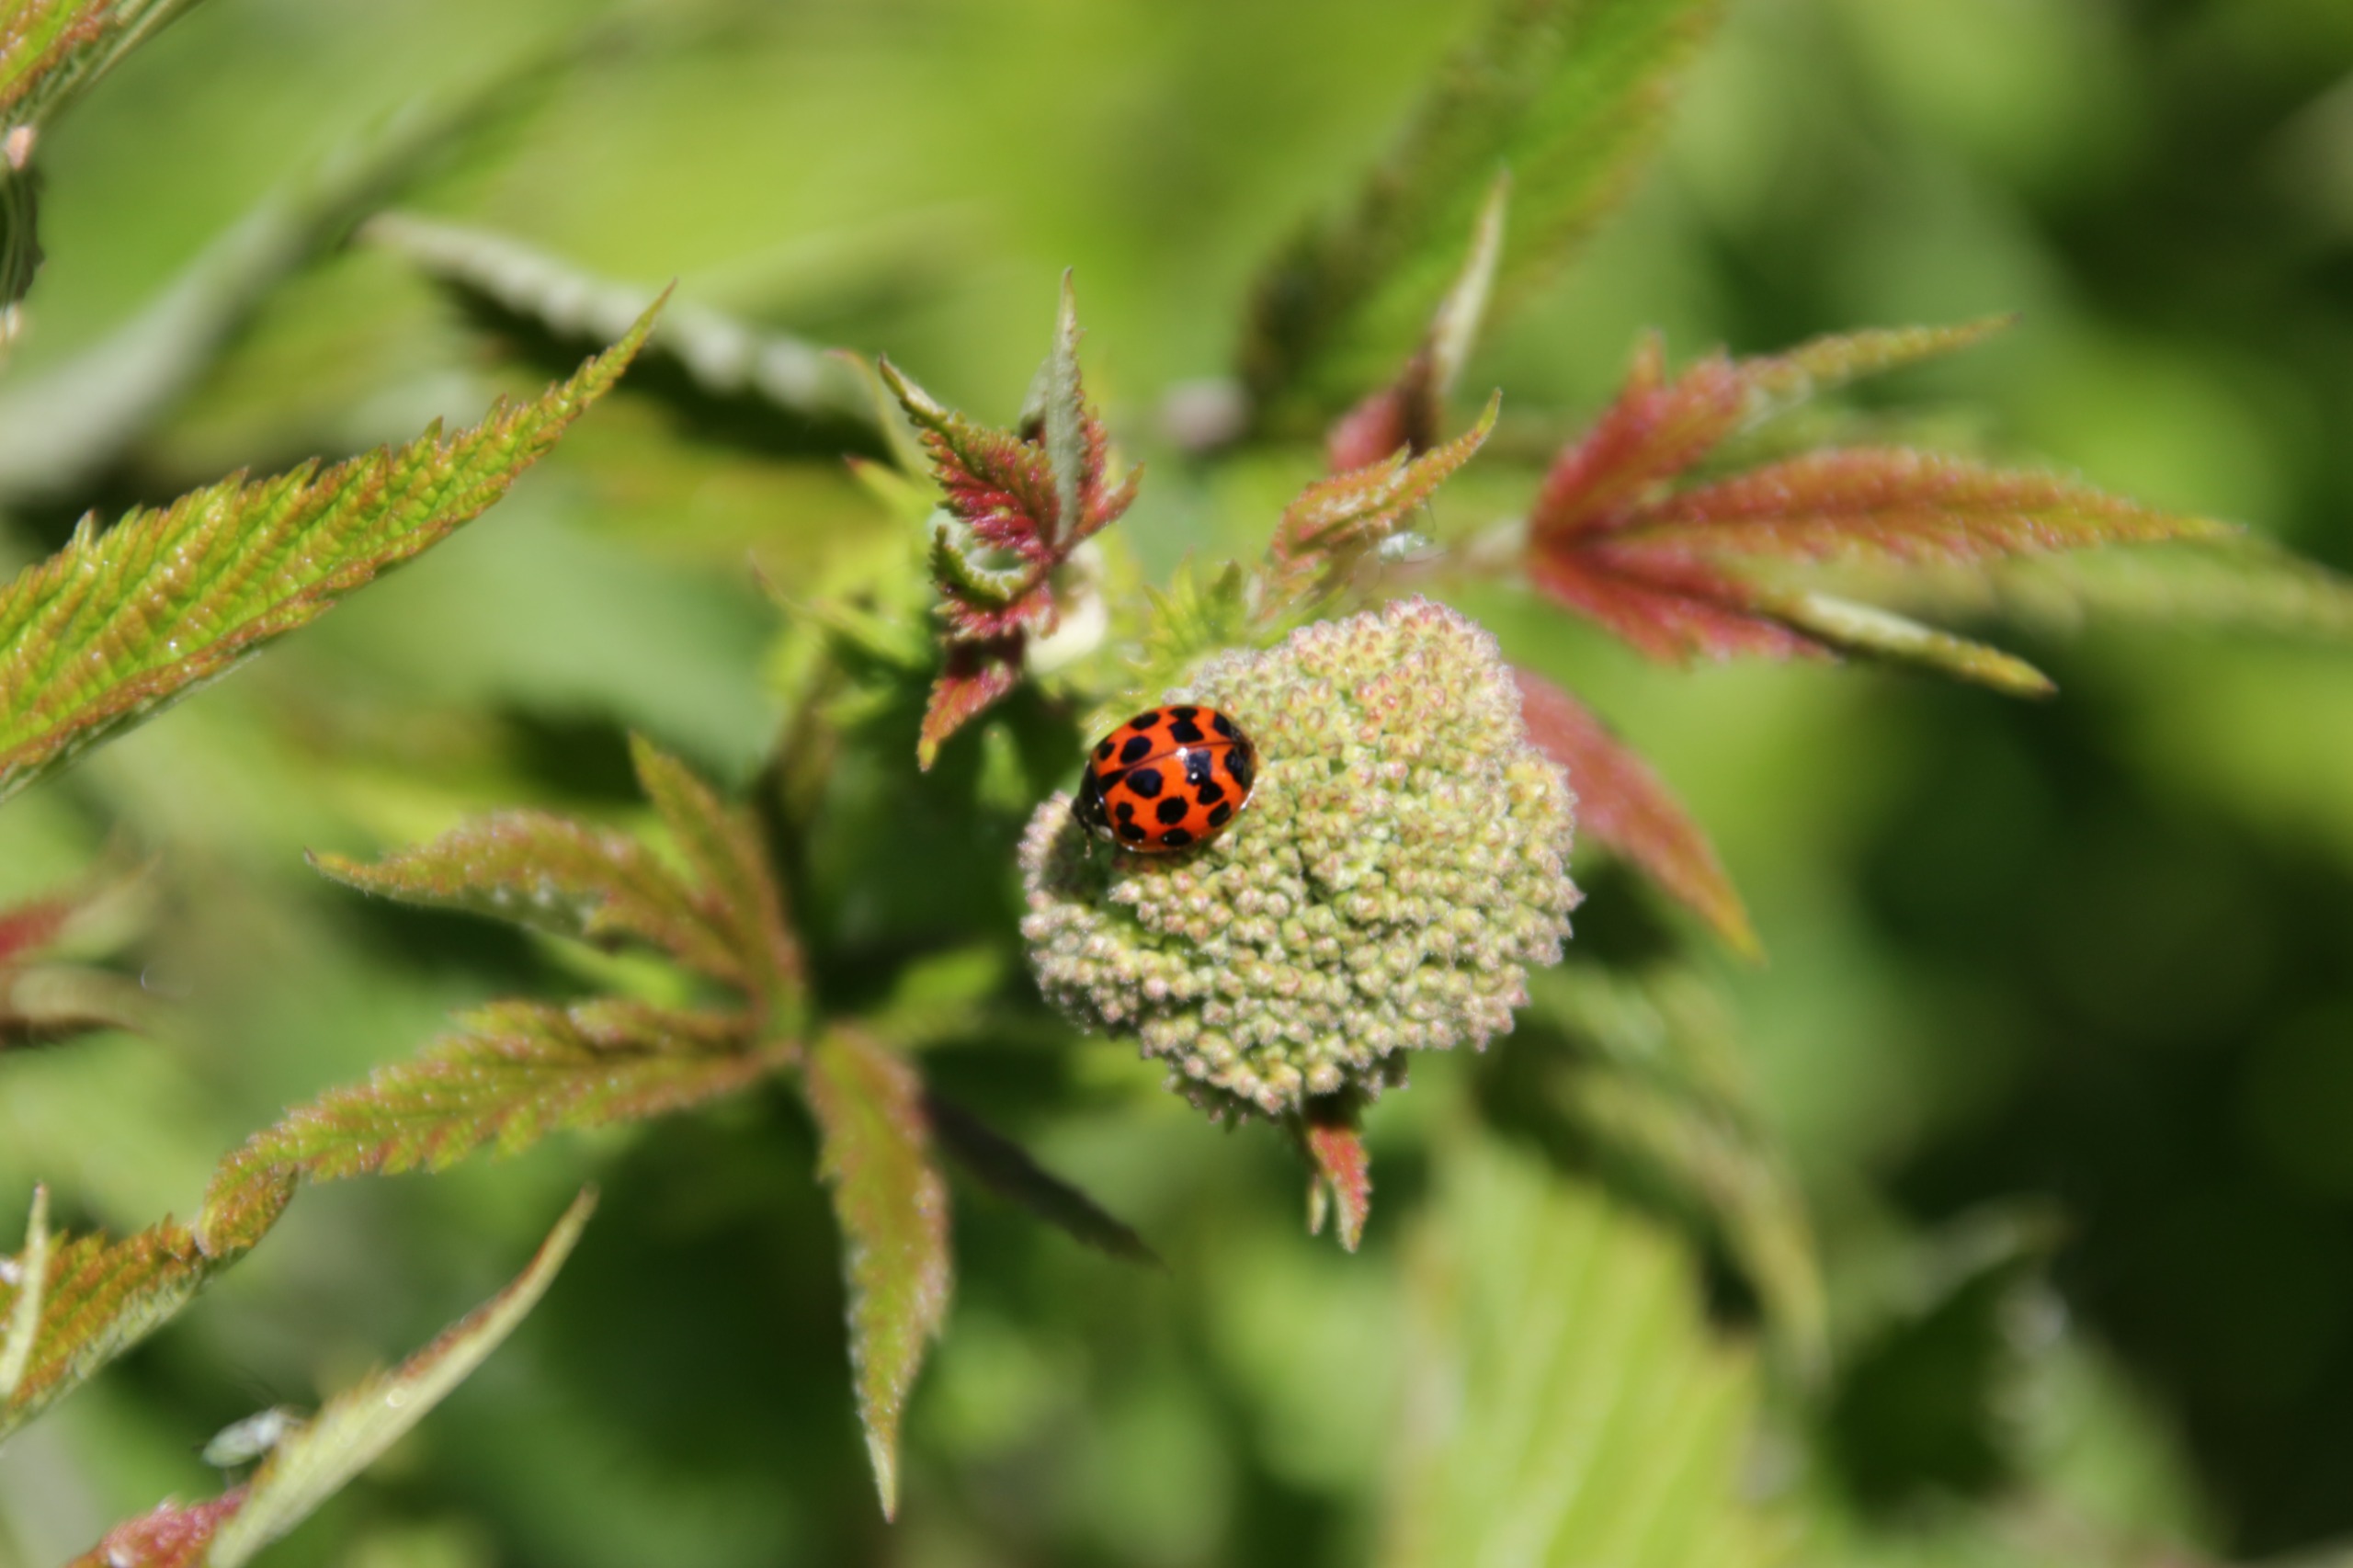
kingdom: Animalia
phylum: Arthropoda
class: Insecta
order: Coleoptera
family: Coccinellidae
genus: Harmonia
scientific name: Harmonia axyridis
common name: Harlekinmariehøne
